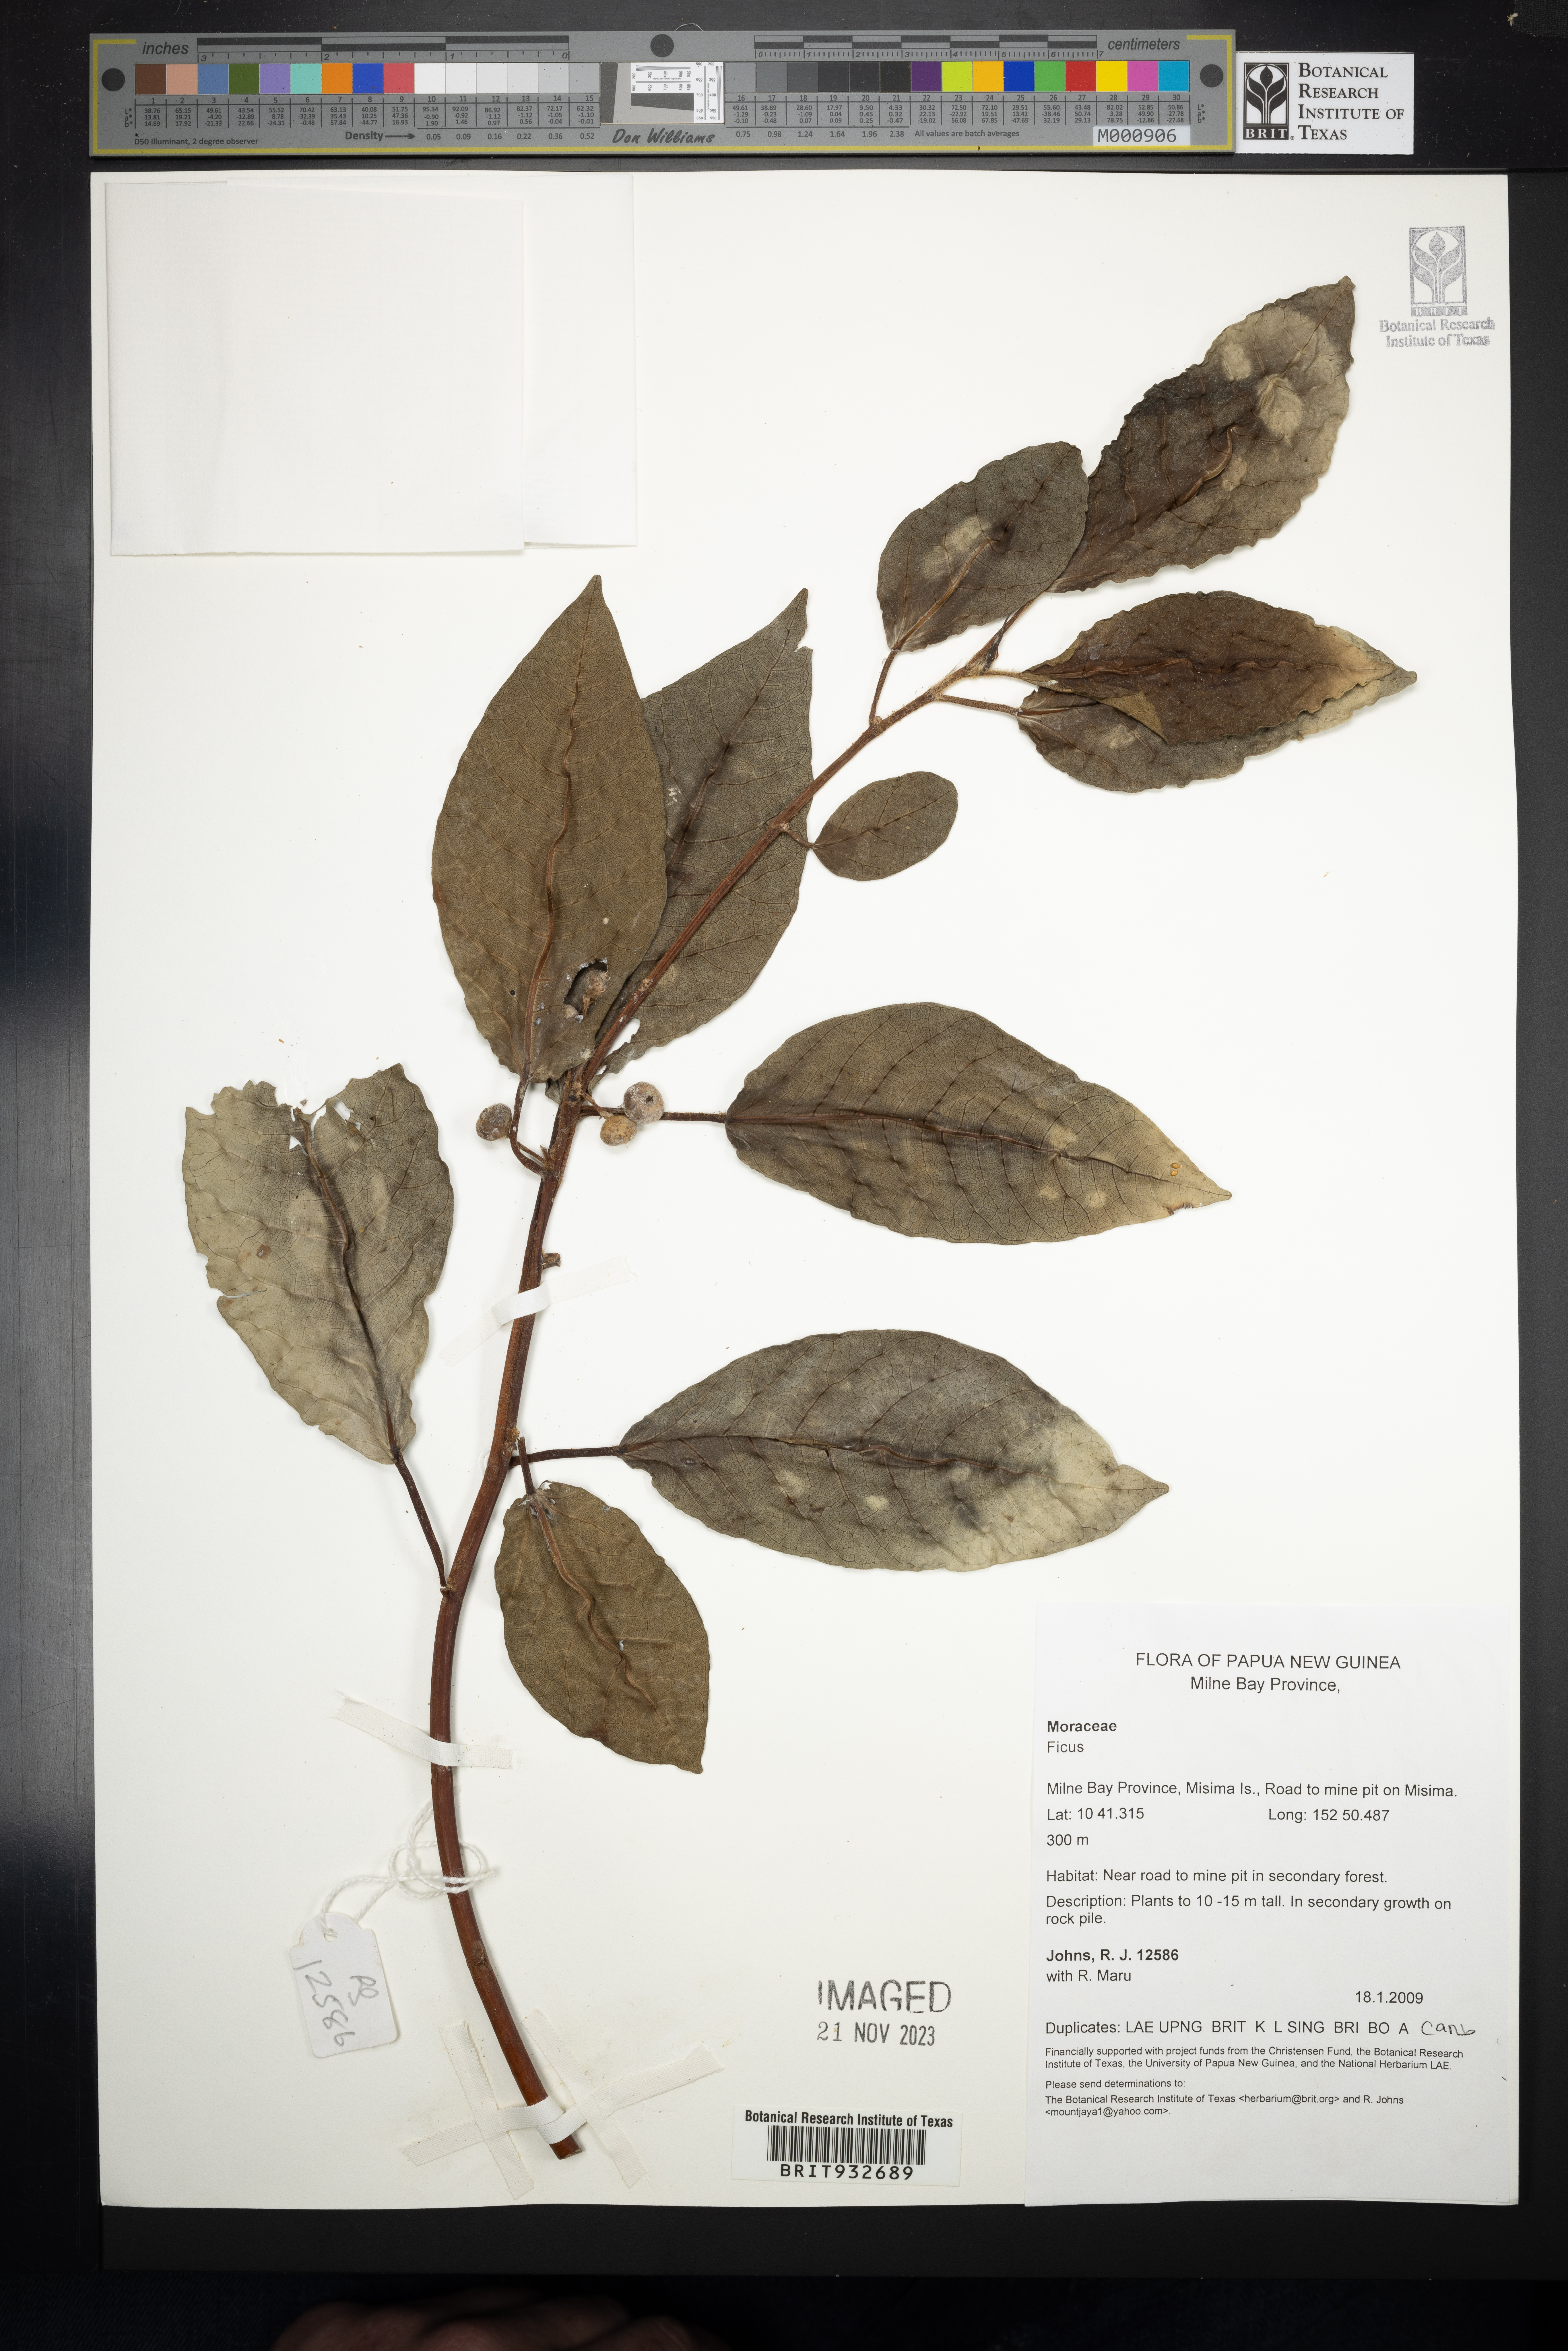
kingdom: Plantae
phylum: Tracheophyta
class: Magnoliopsida
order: Rosales
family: Moraceae
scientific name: Moraceae
